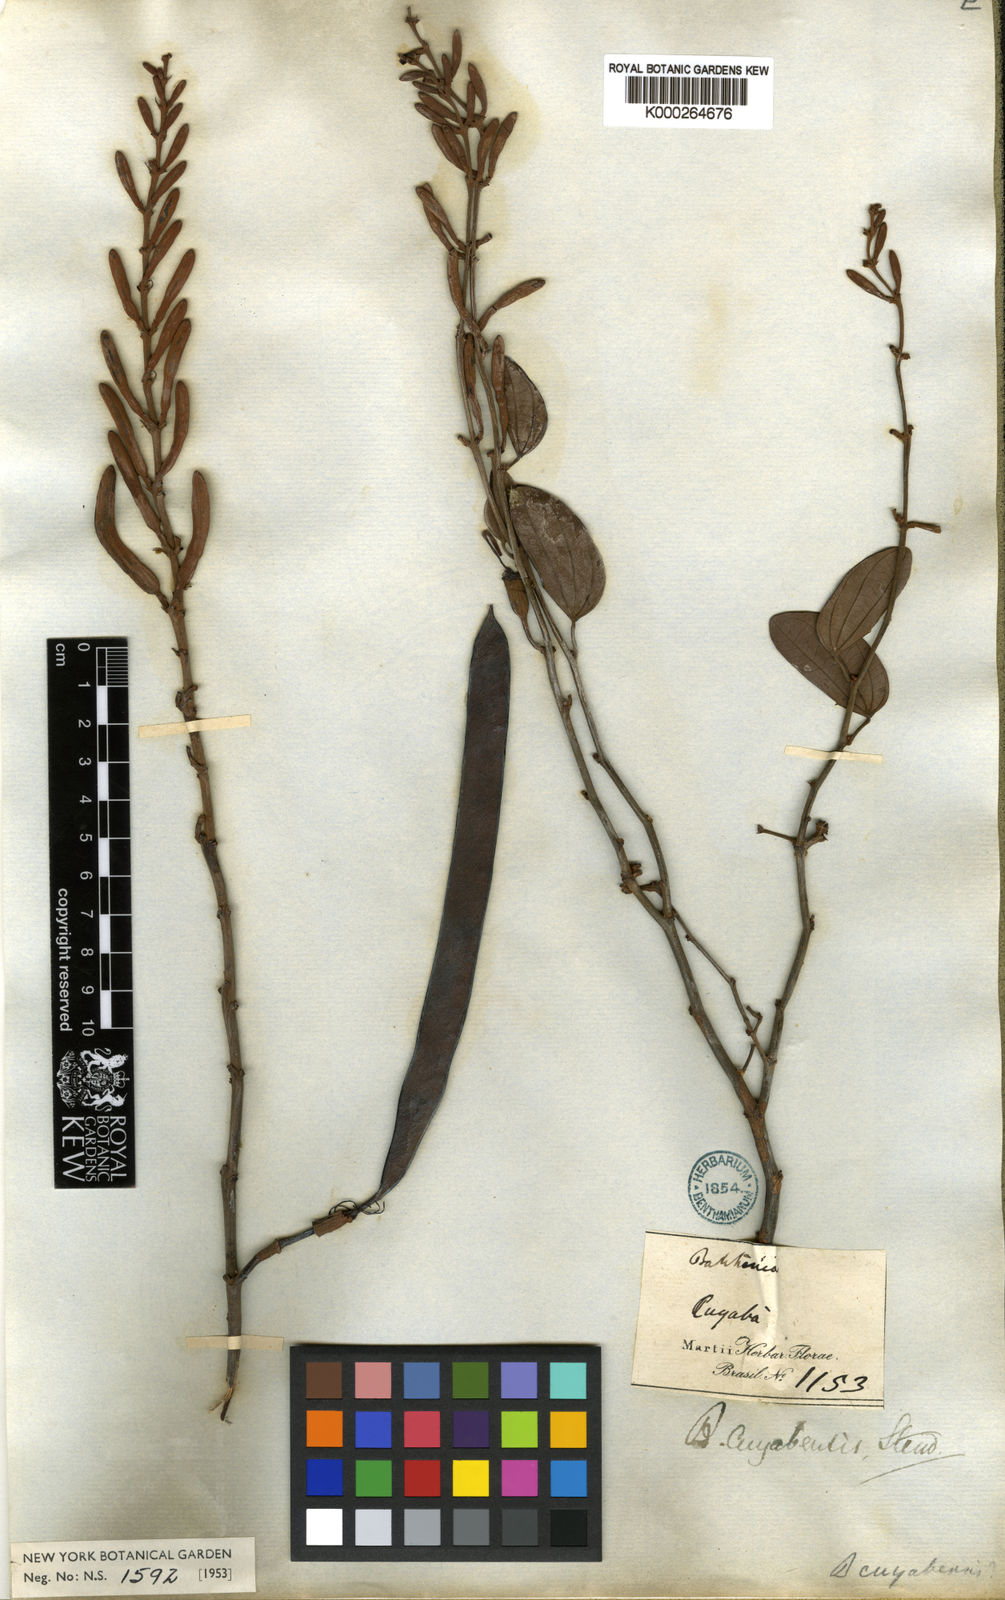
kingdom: Plantae
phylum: Tracheophyta
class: Magnoliopsida
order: Fabales
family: Fabaceae
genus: Bauhinia
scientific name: Bauhinia ungulata
